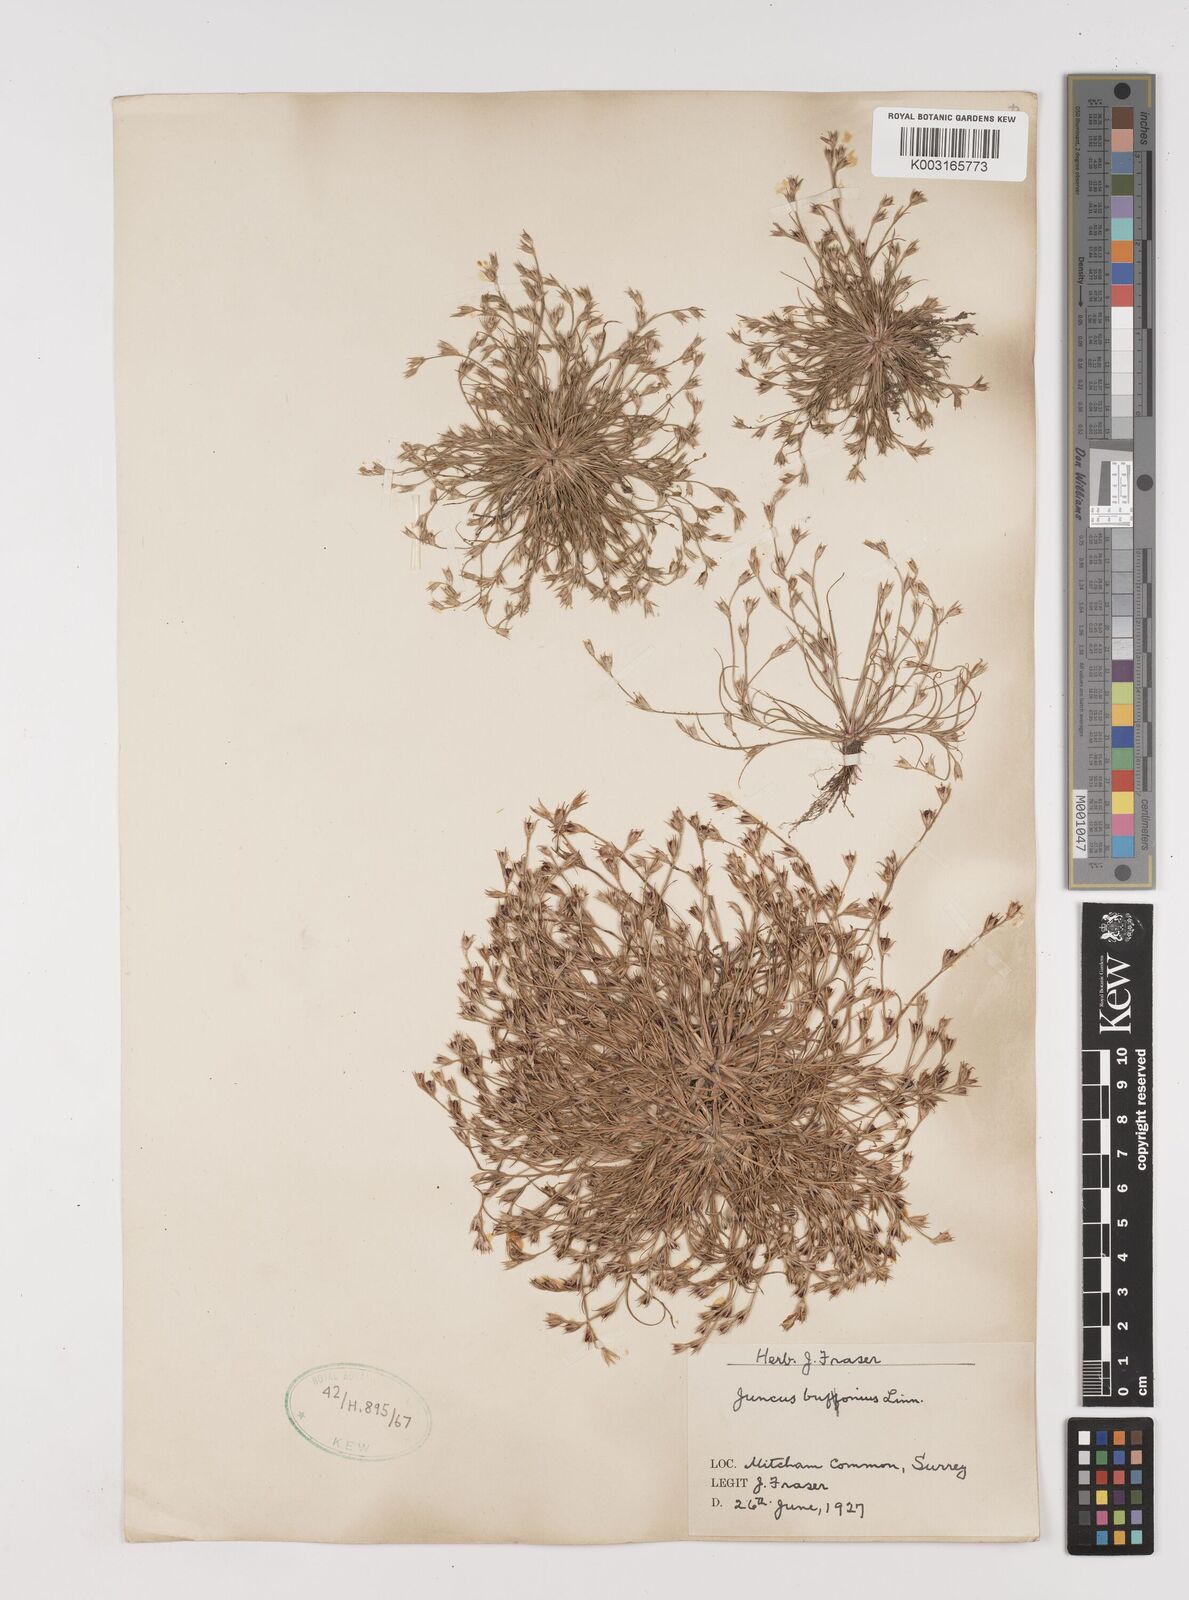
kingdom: Plantae
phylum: Tracheophyta
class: Liliopsida
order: Poales
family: Juncaceae
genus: Juncus
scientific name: Juncus bufonius
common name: Toad rush
